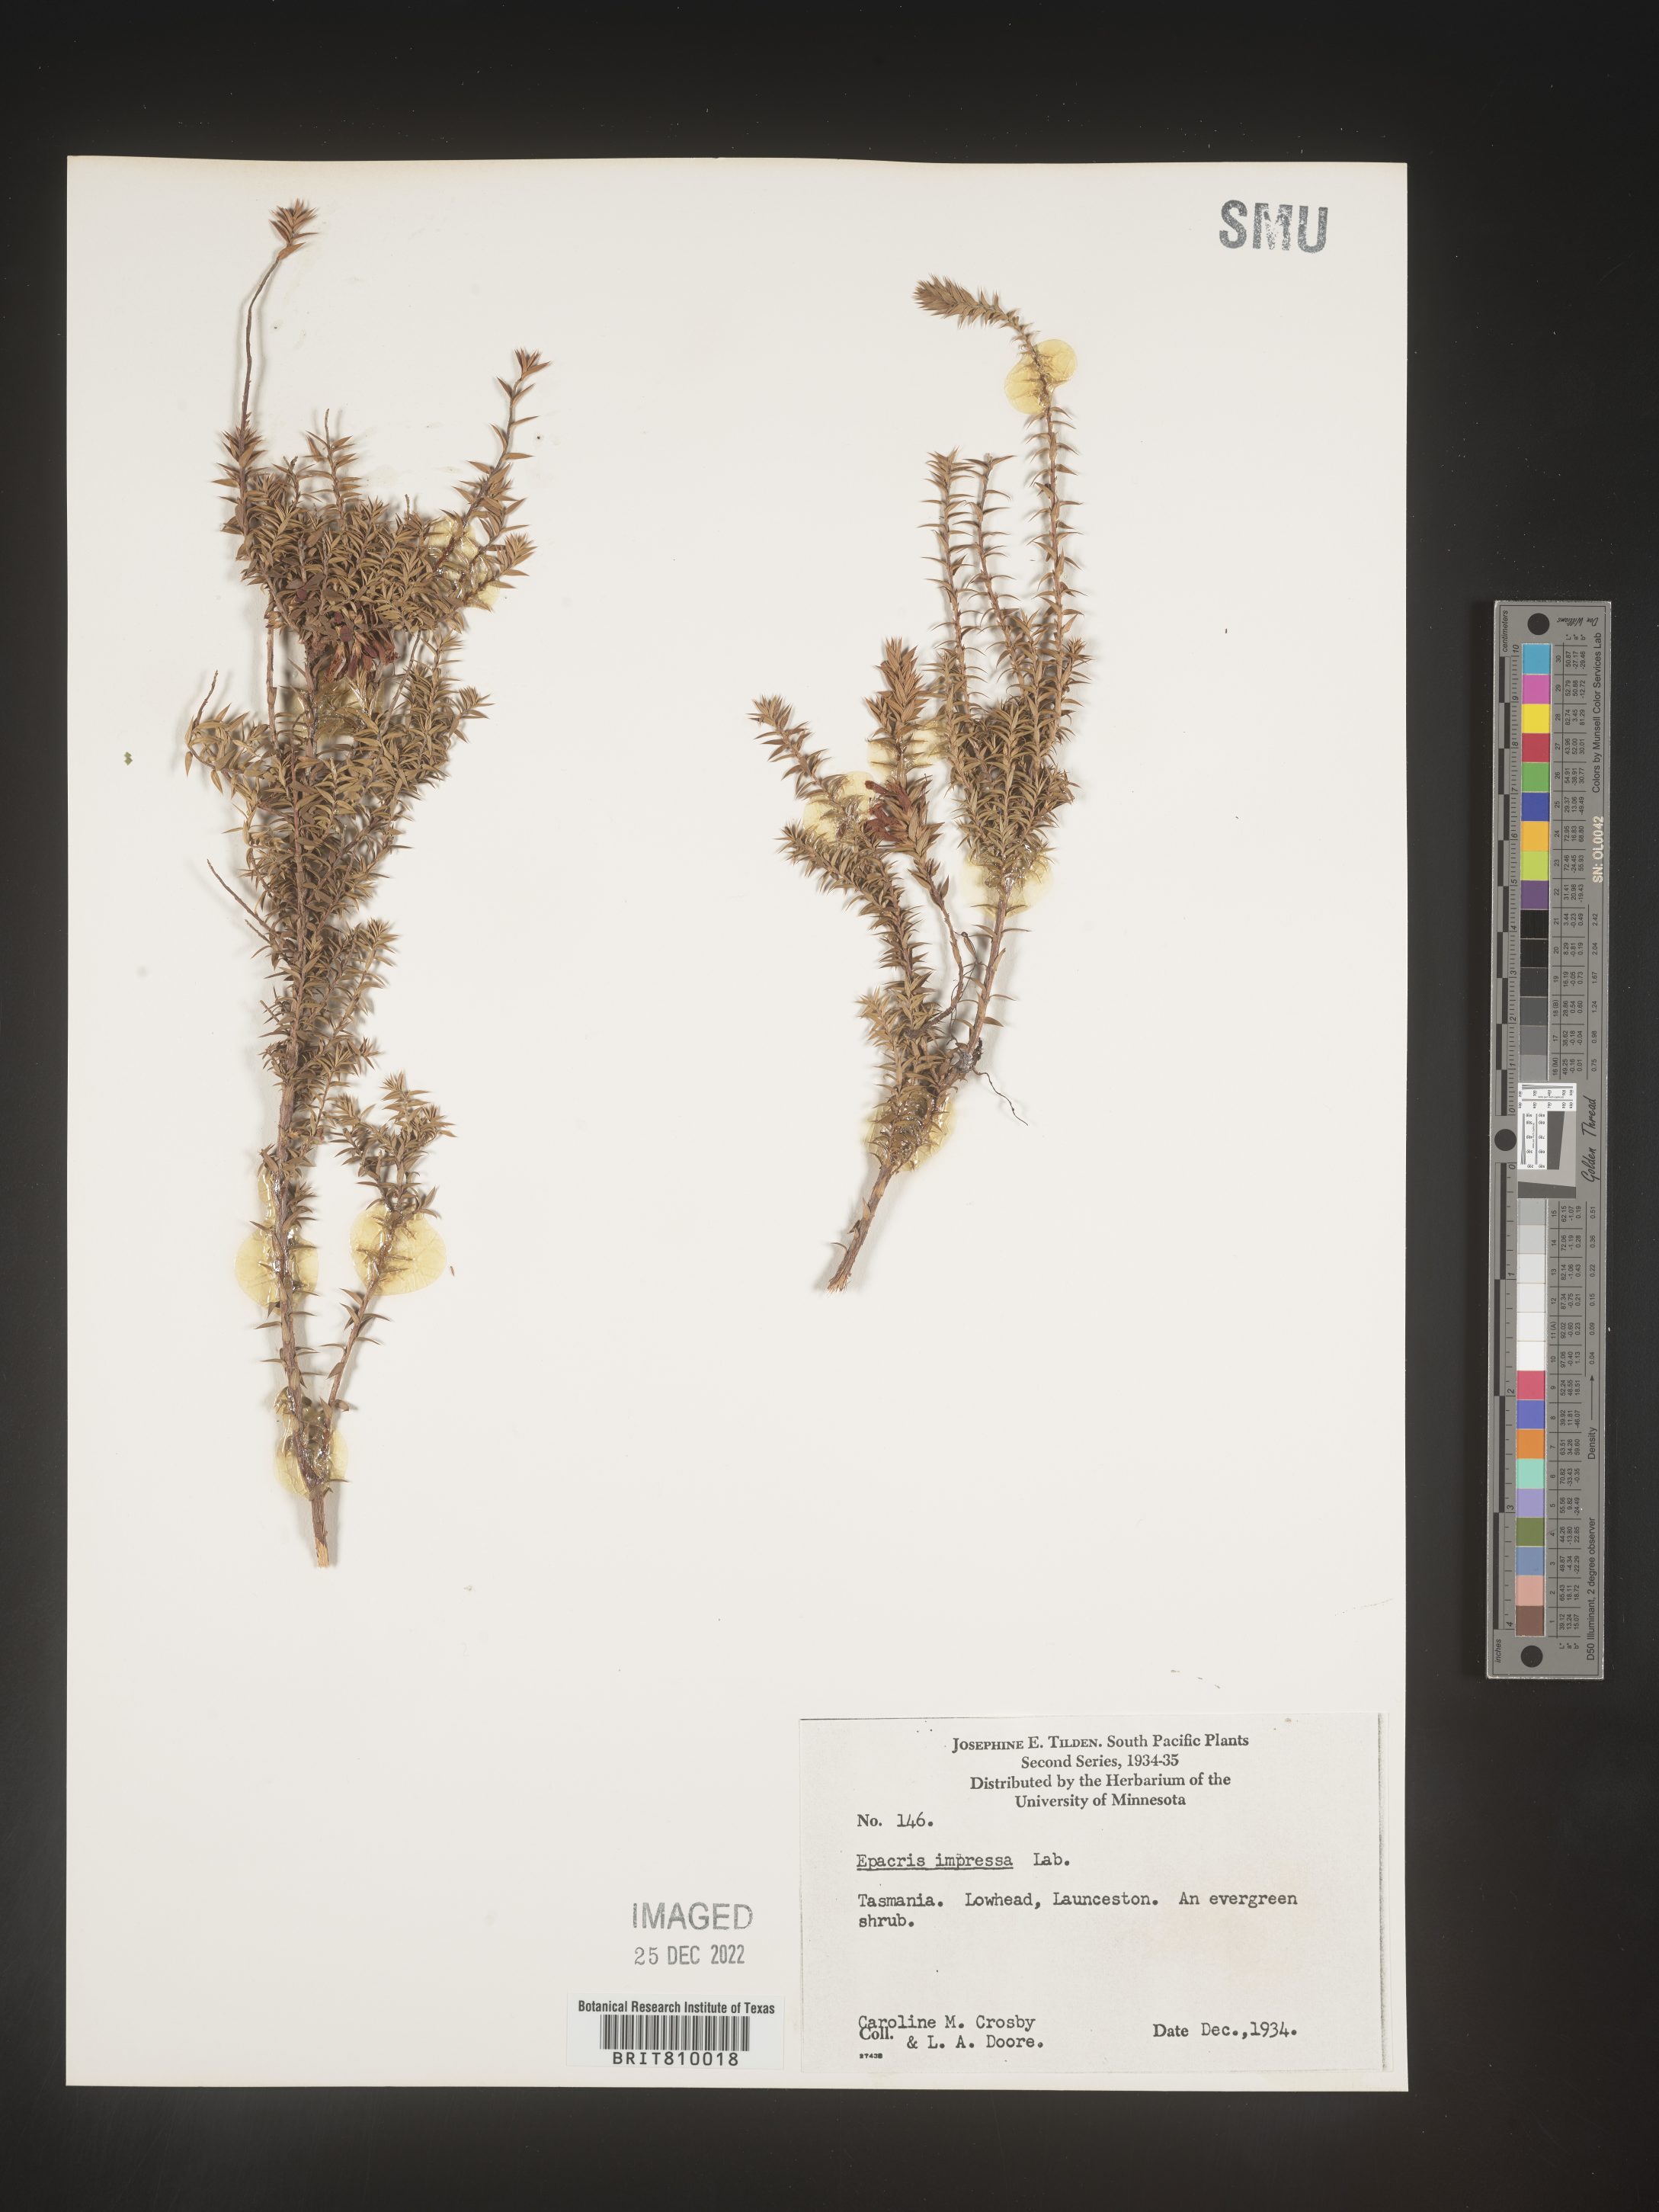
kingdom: Plantae
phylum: Tracheophyta
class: Magnoliopsida
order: Ericales
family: Ericaceae
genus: Epacris
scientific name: Epacris
